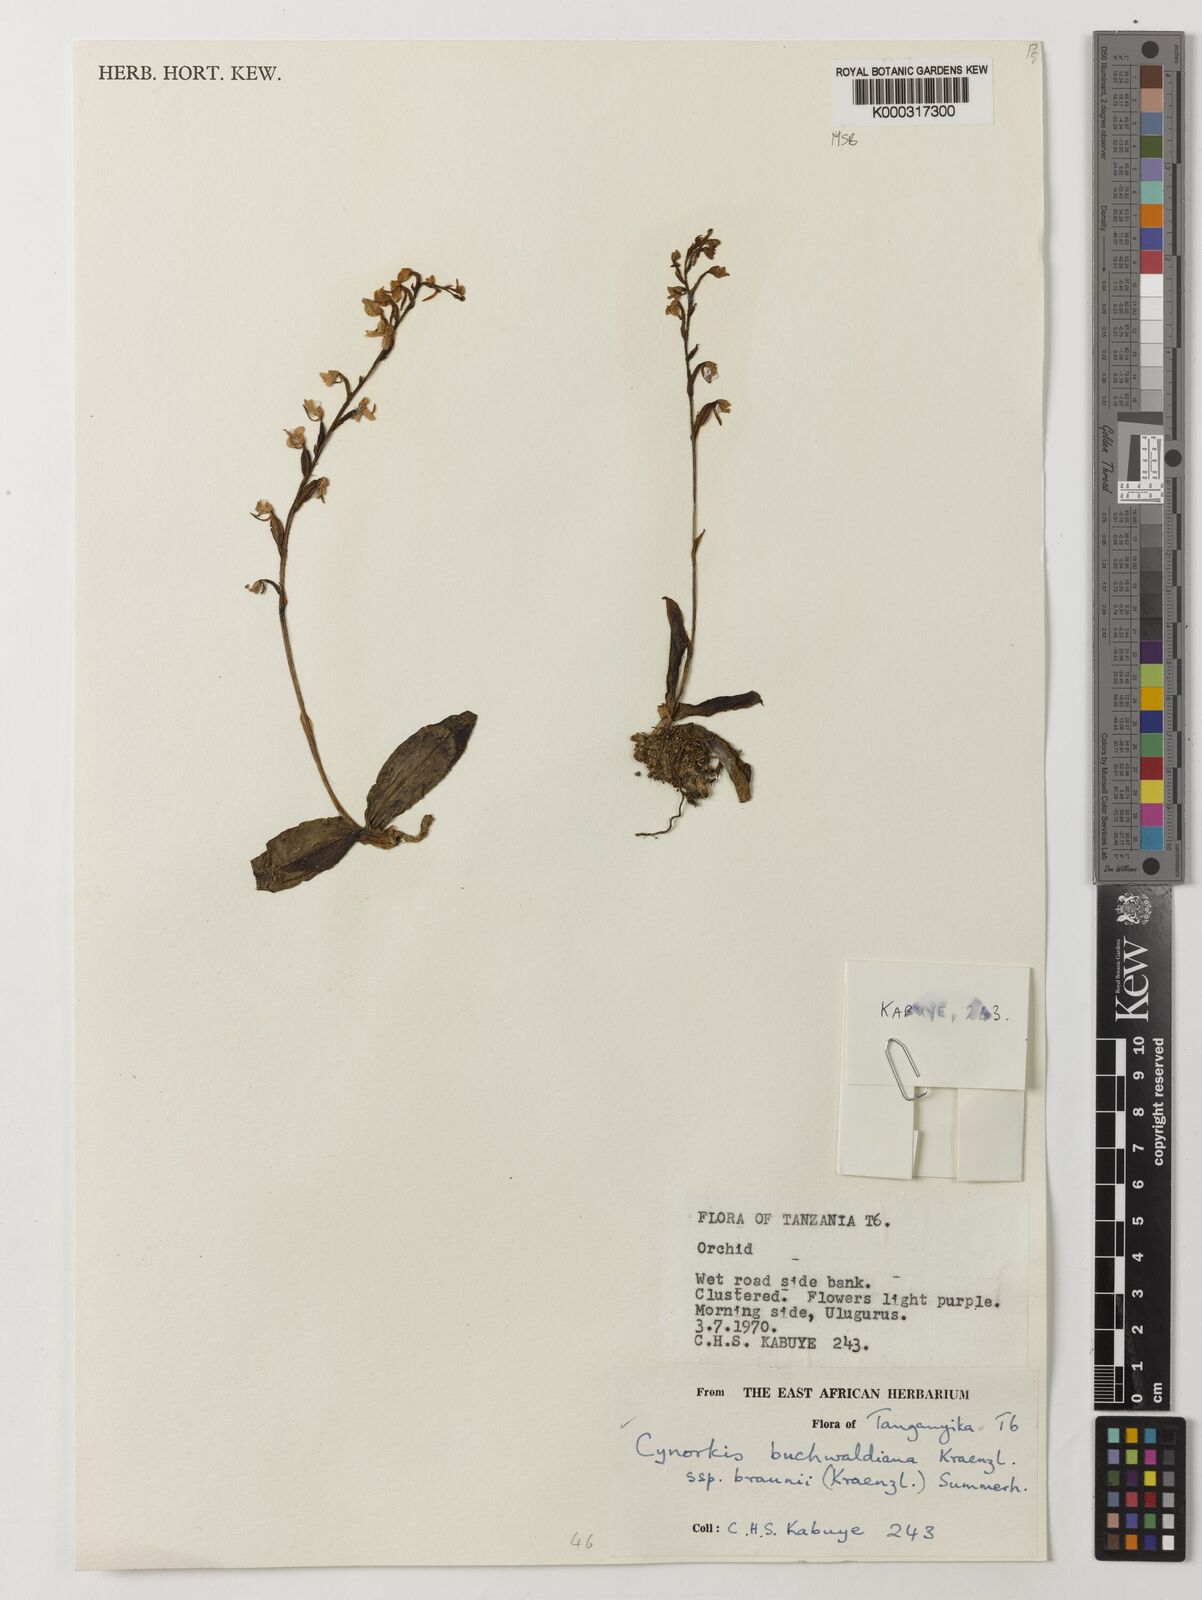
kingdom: Plantae
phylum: Tracheophyta
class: Liliopsida
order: Asparagales
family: Orchidaceae
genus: Cynorkis
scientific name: Cynorkis buchwaldiana
